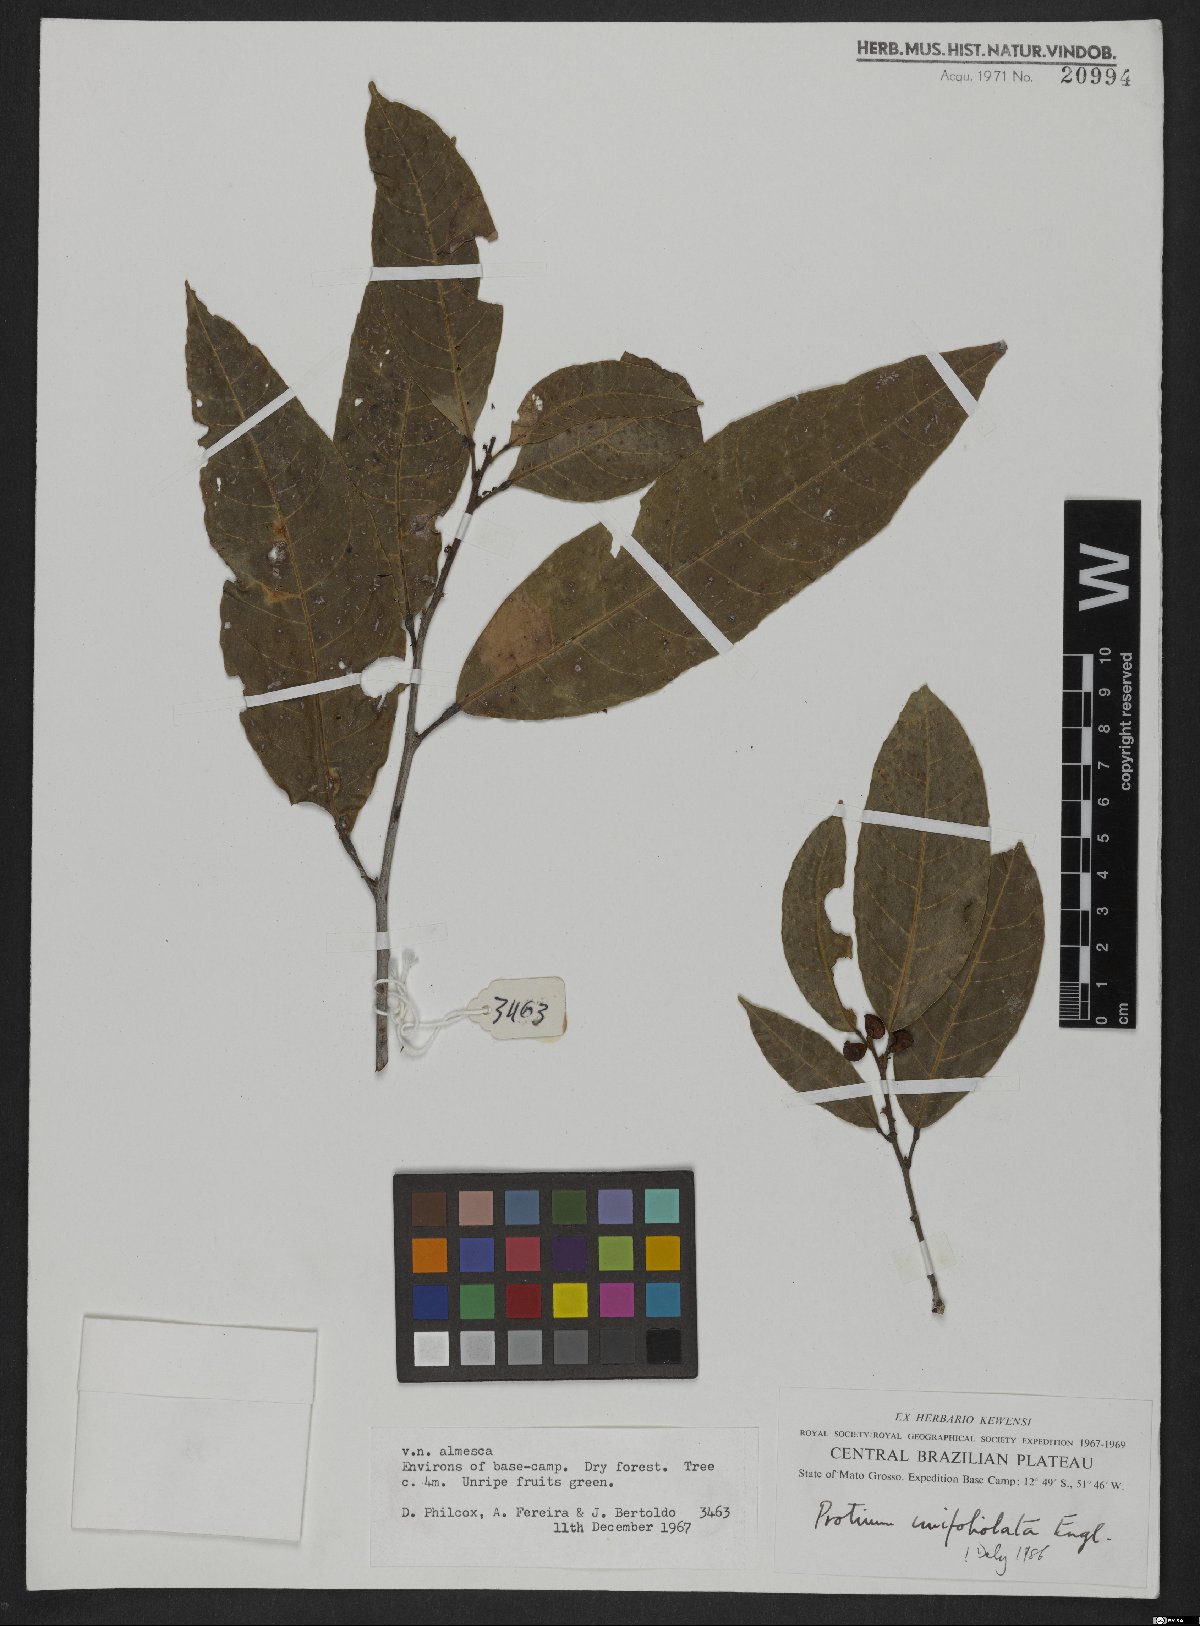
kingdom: Plantae
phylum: Tracheophyta
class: Magnoliopsida
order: Sapindales
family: Burseraceae
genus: Protium
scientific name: Protium unifoliolatum
